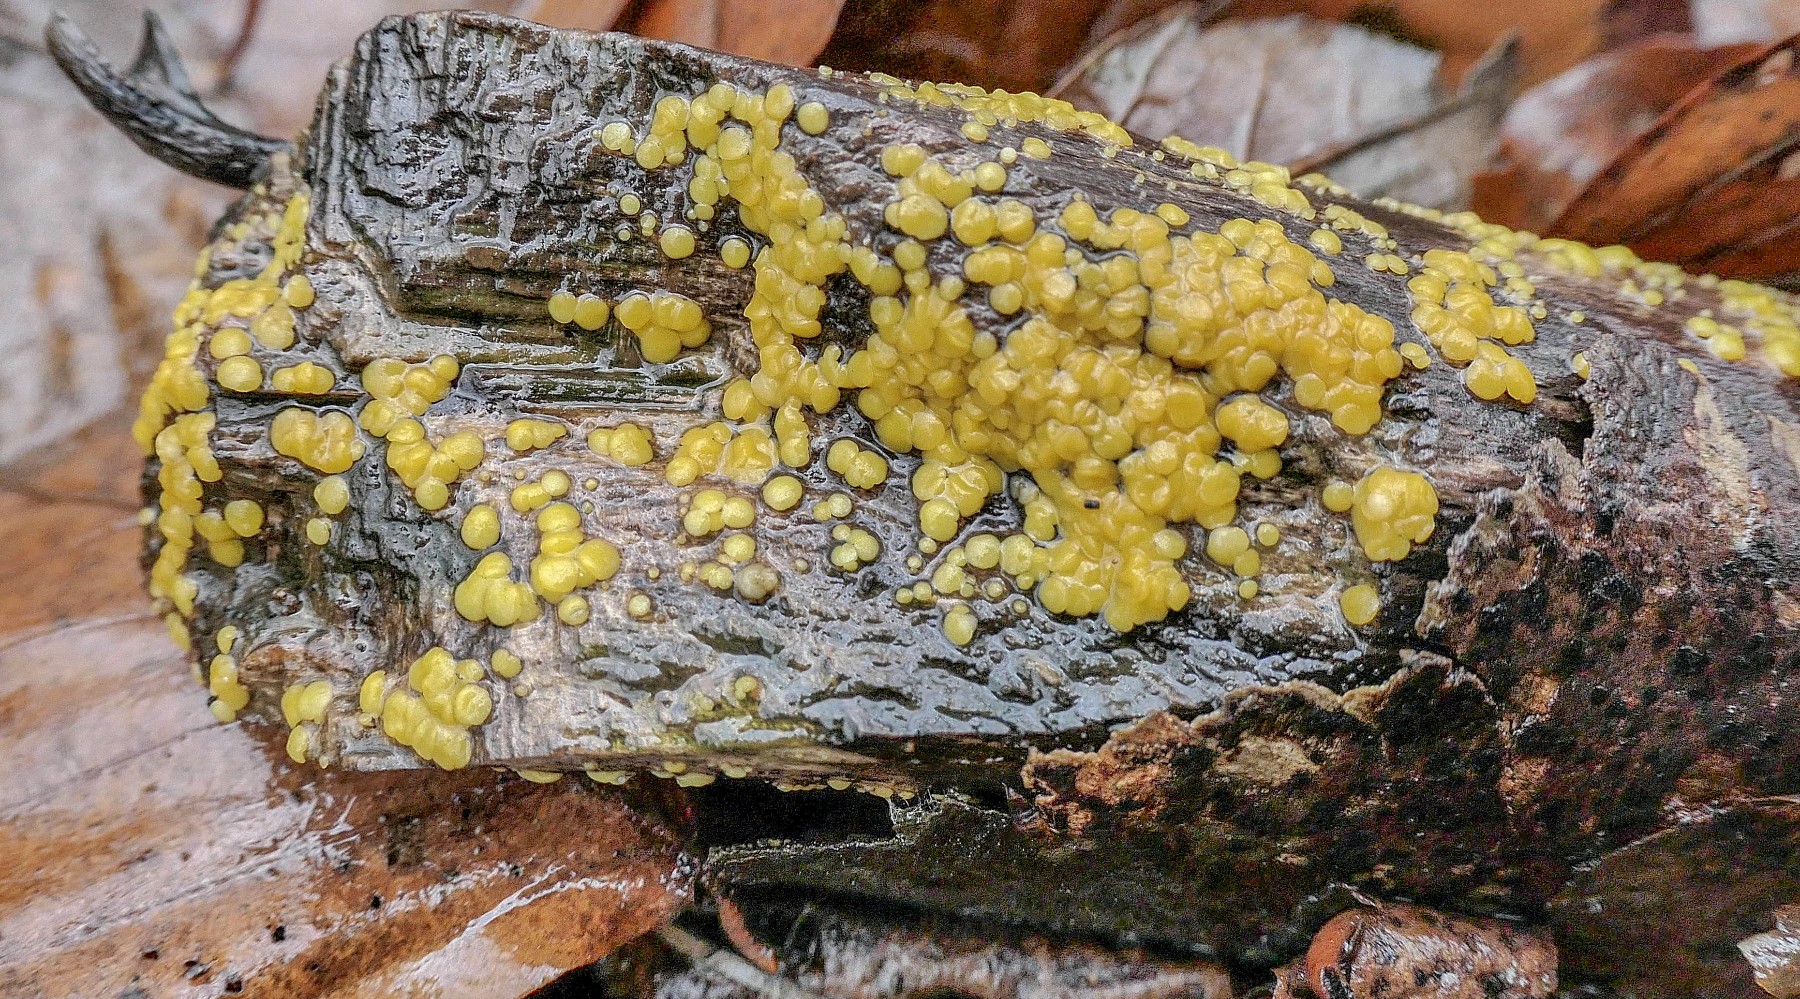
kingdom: Fungi
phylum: Ascomycota
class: Leotiomycetes
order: Helotiales
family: Pezizellaceae
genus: Calycina
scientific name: Calycina citrina
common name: almindelig gulskive
